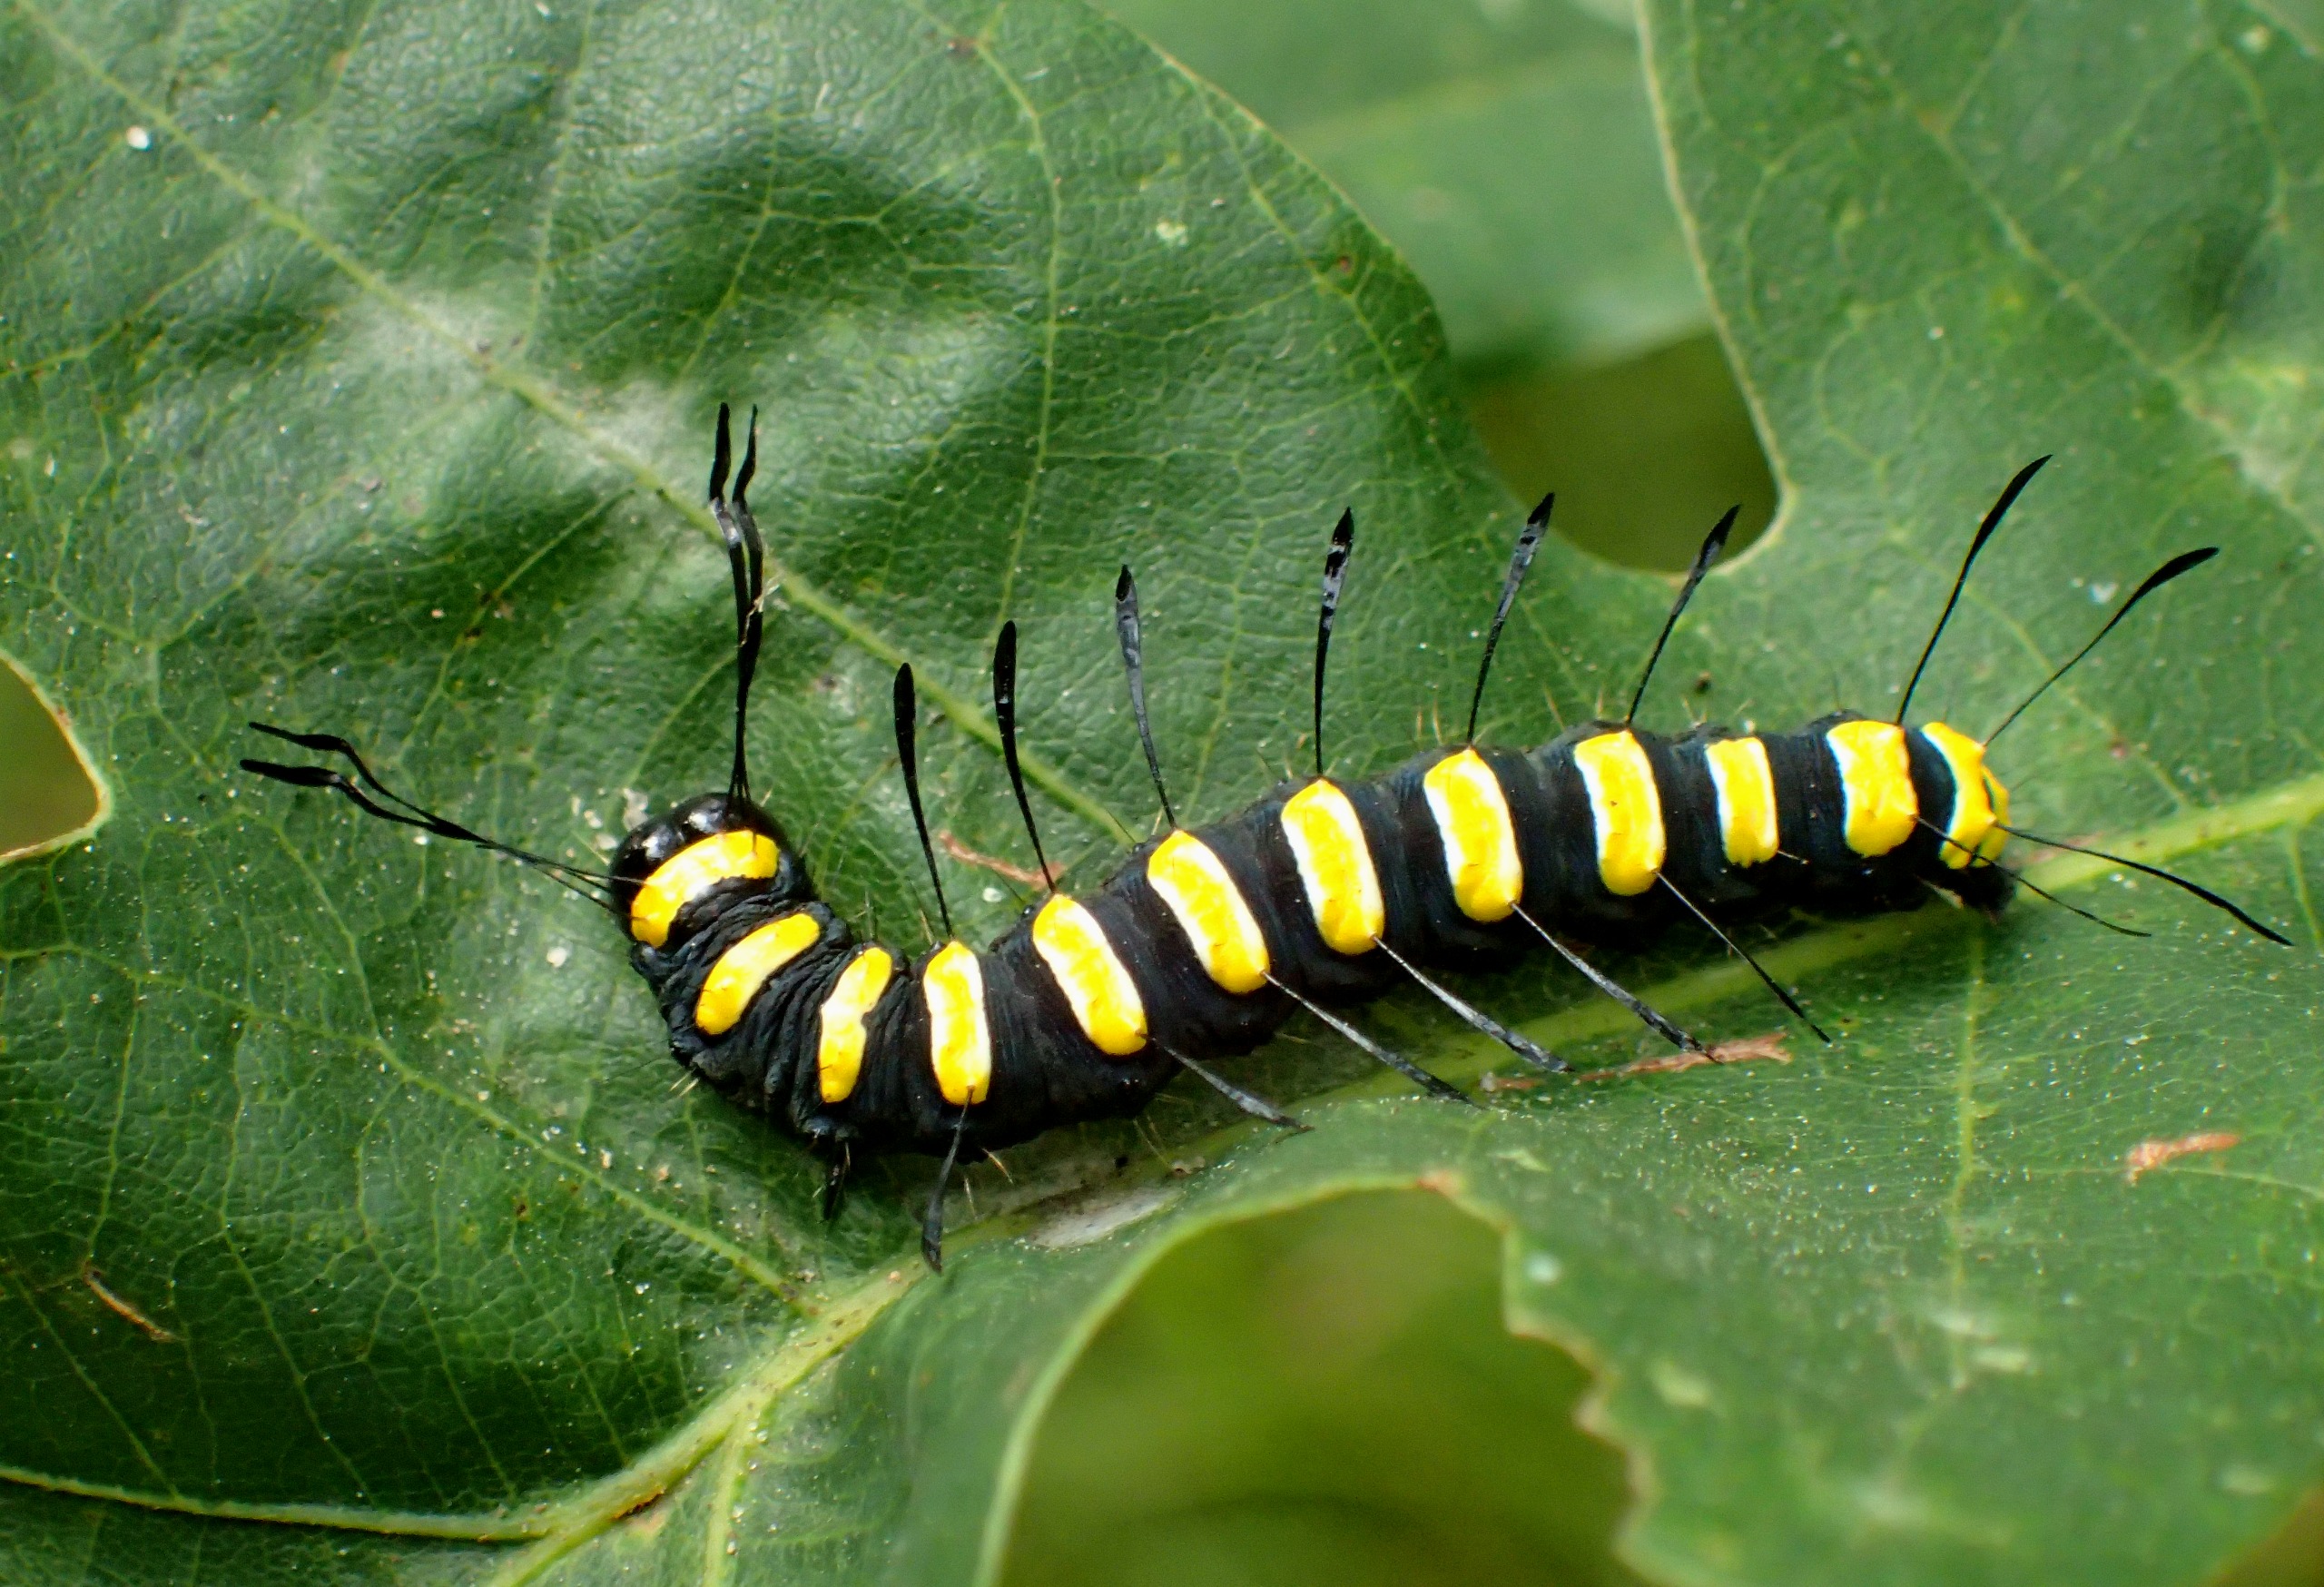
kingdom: Animalia
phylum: Arthropoda
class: Insecta
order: Lepidoptera
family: Noctuidae
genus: Acronicta
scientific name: Acronicta alni
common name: Kølleugle
